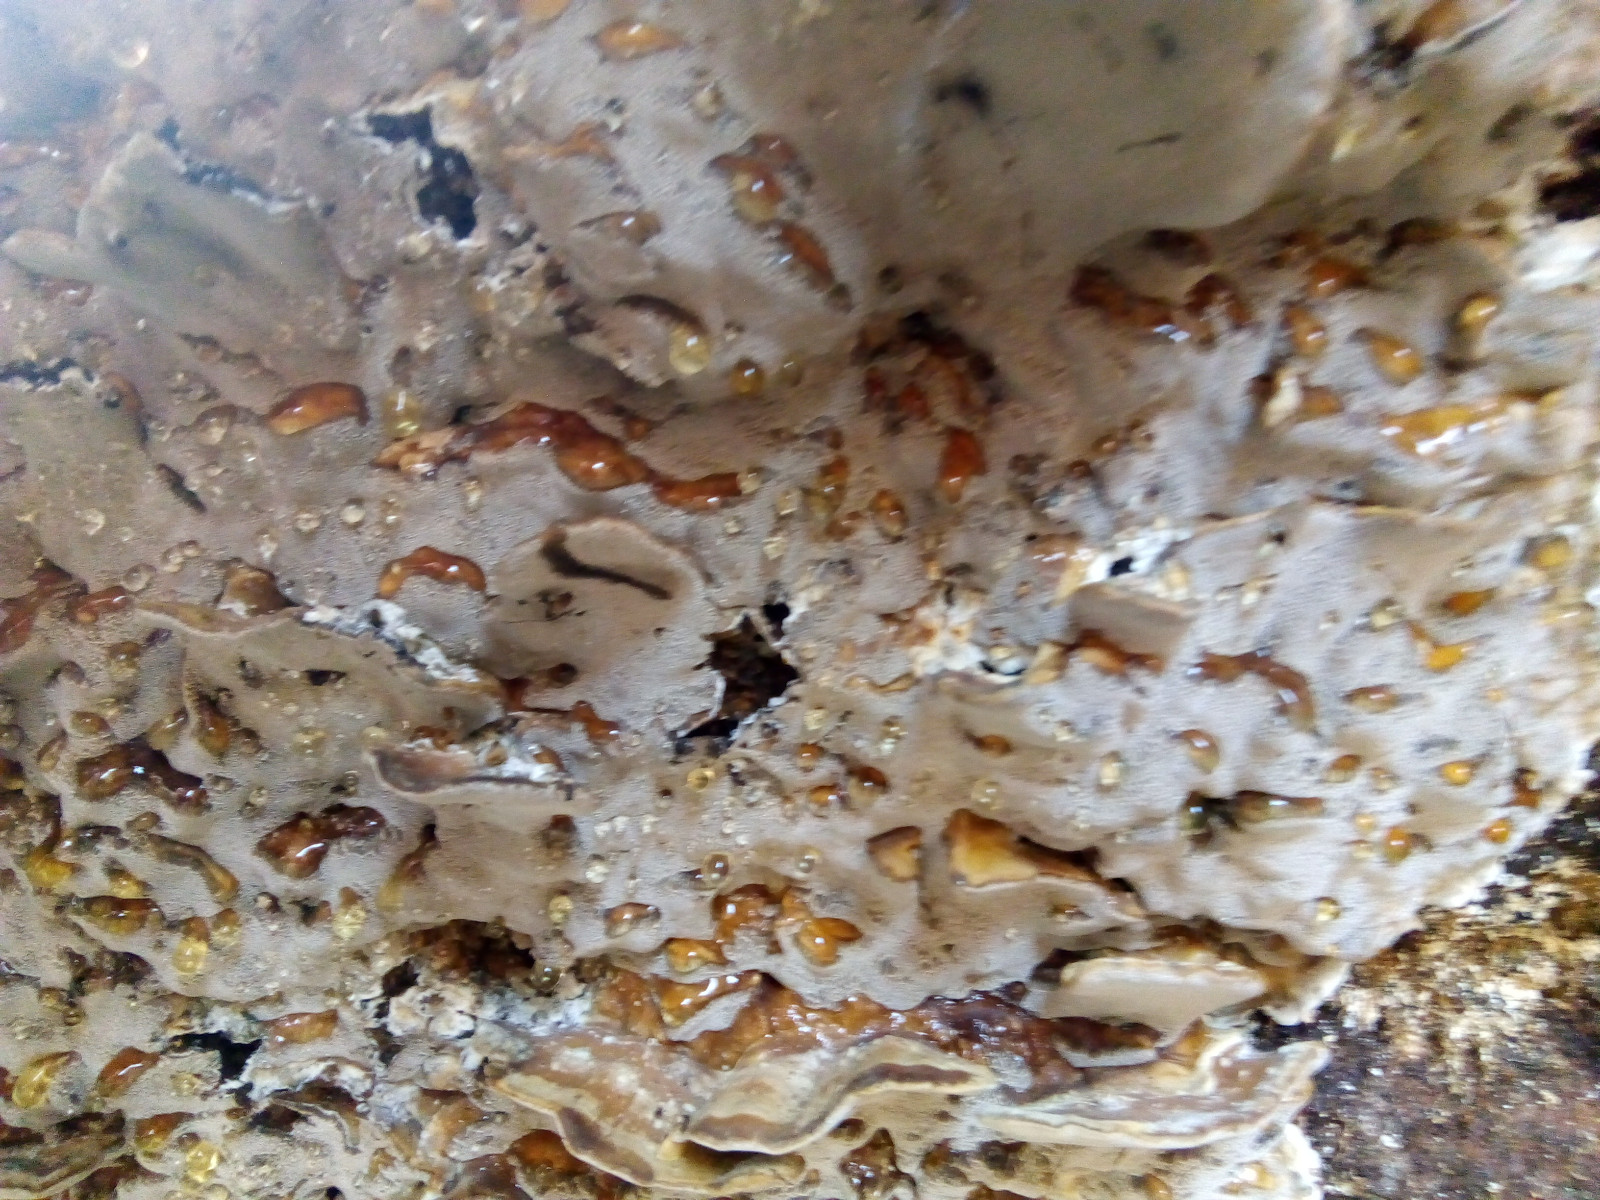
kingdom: Fungi
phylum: Basidiomycota
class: Agaricomycetes
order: Polyporales
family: Phanerochaetaceae
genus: Bjerkandera
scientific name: Bjerkandera adusta
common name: sveden sodporesvamp
